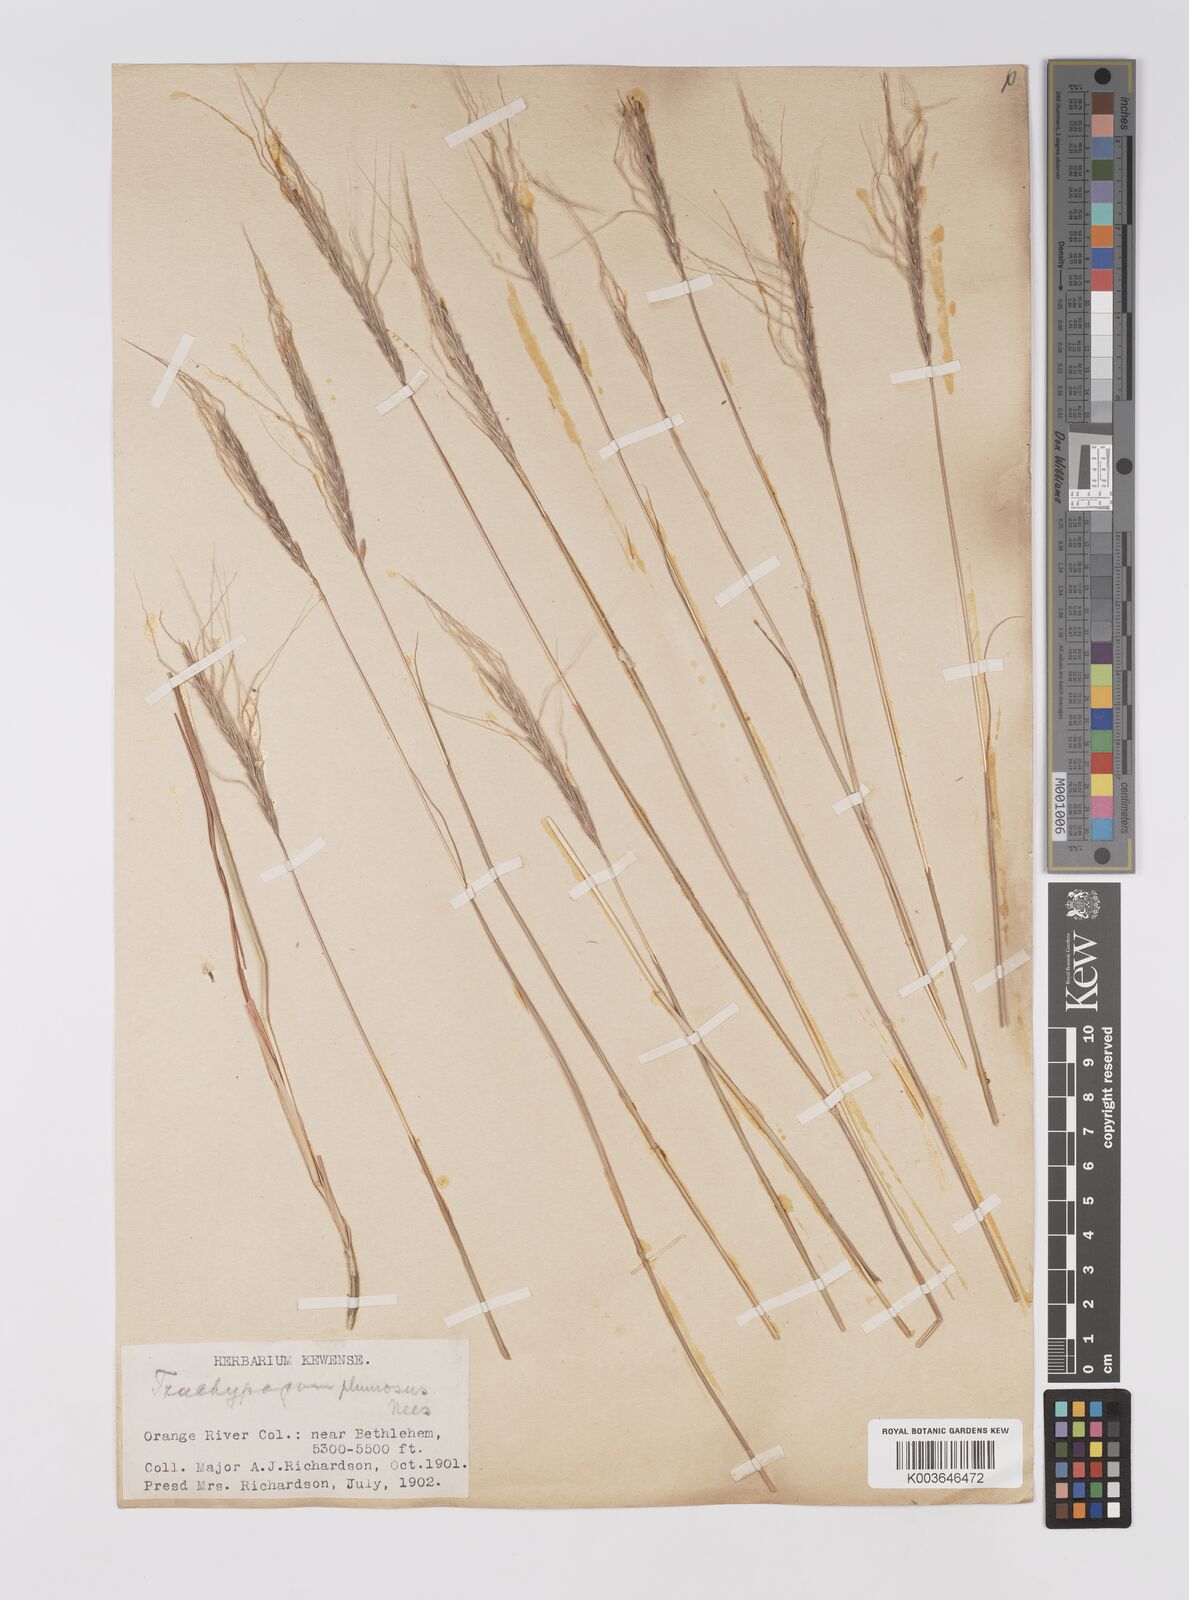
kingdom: Plantae
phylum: Tracheophyta
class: Liliopsida
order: Poales
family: Poaceae
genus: Trachypogon
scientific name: Trachypogon spicatus
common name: Crinkle-awn
